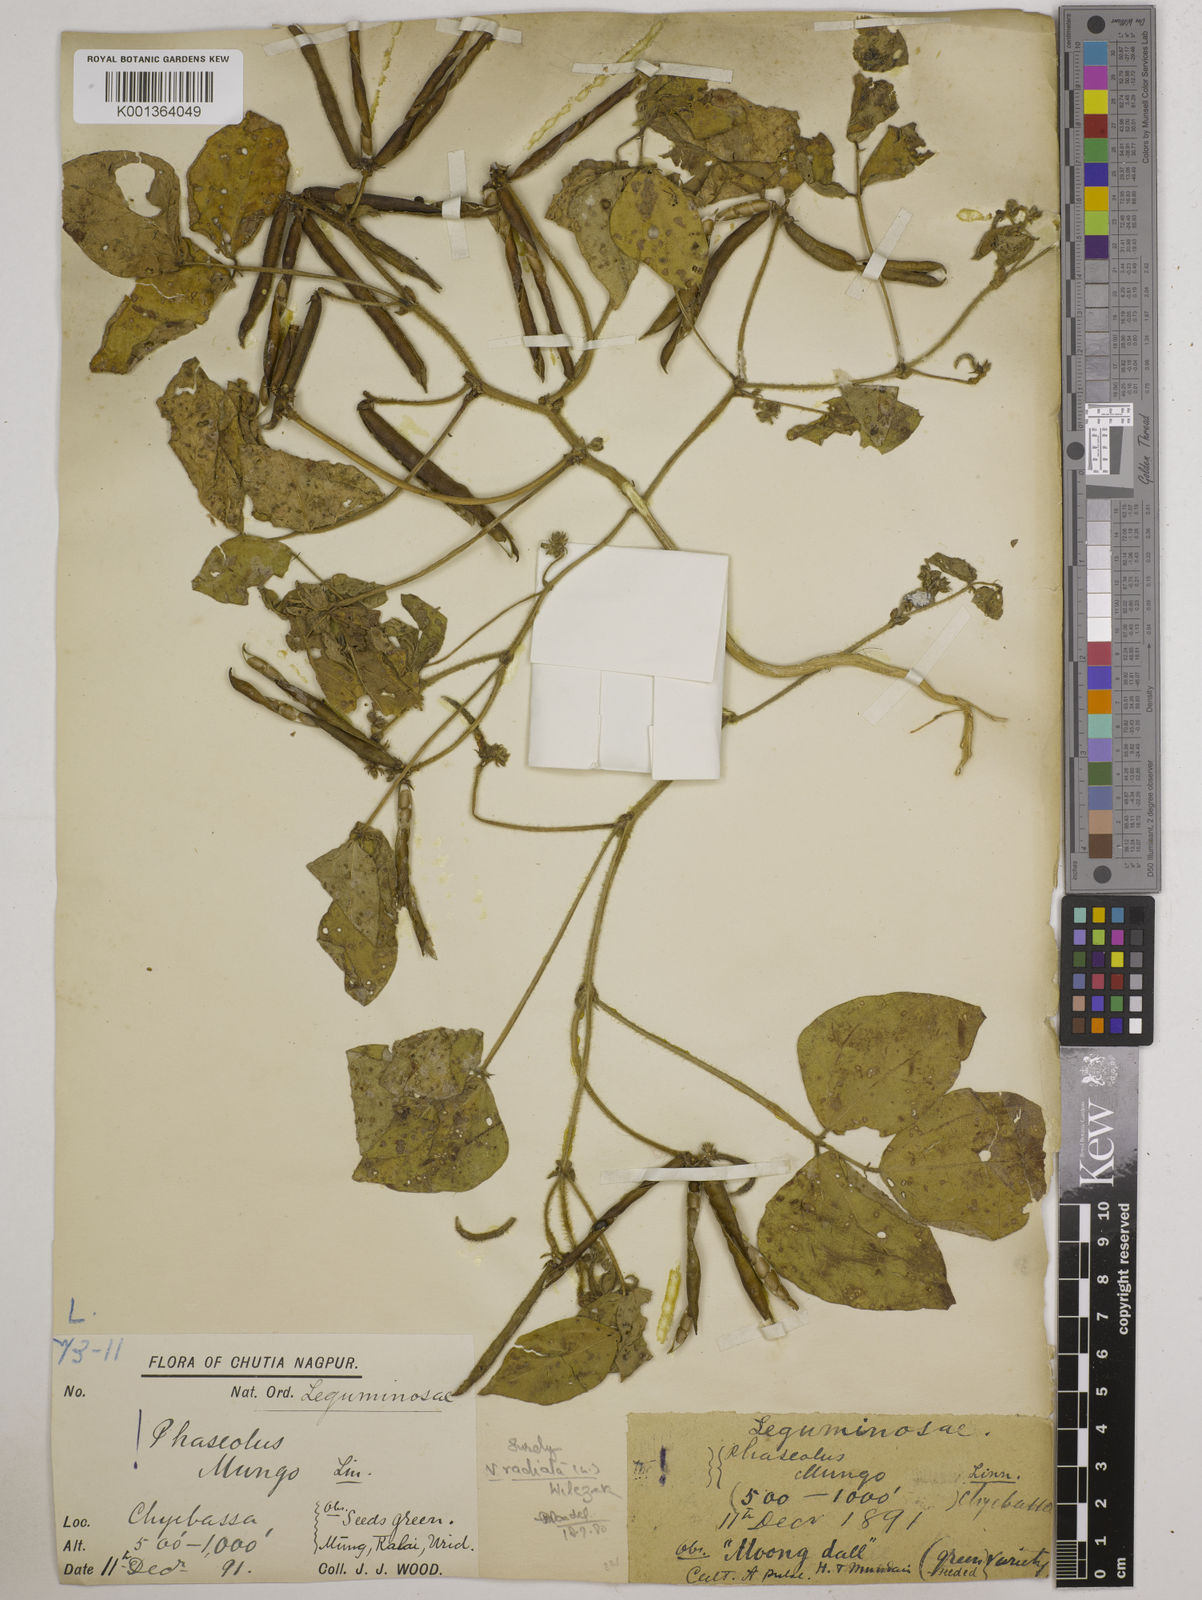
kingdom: Plantae
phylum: Tracheophyta
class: Magnoliopsida
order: Fabales
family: Fabaceae
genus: Vigna
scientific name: Vigna radiata
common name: Mung-bean
